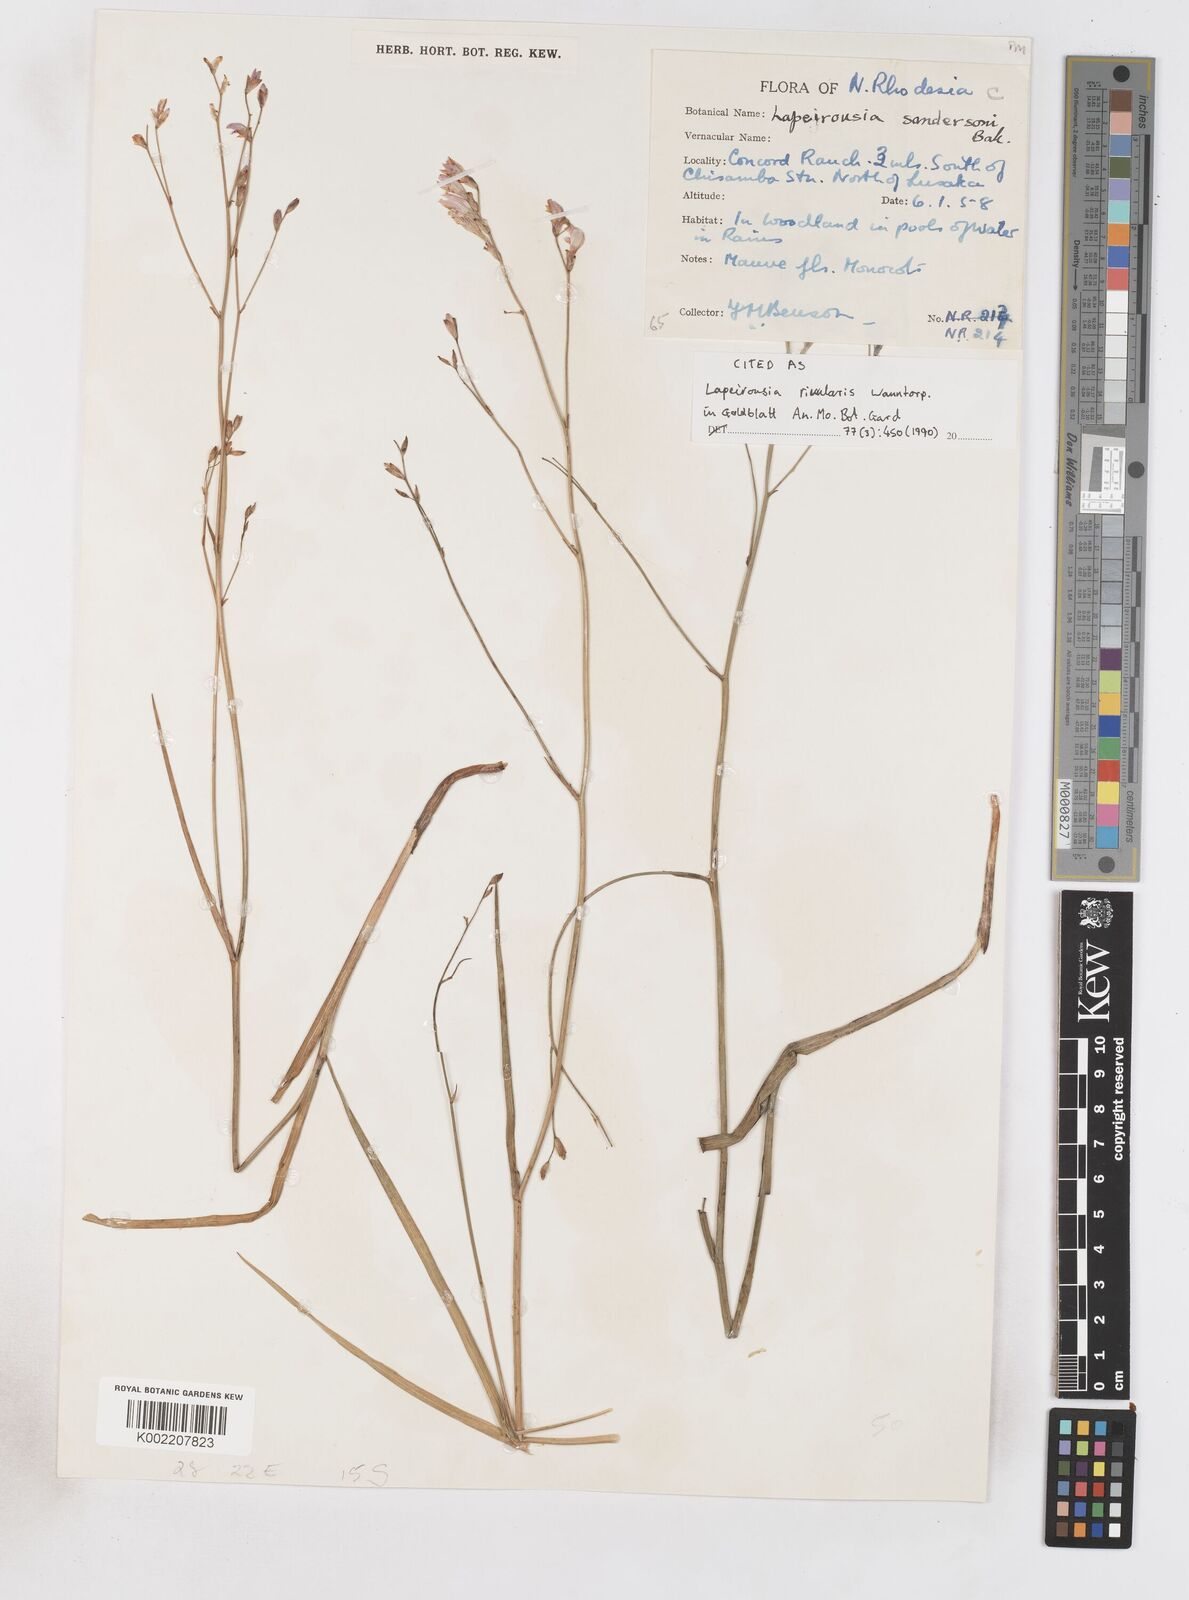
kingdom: Plantae
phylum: Tracheophyta
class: Liliopsida
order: Asparagales
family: Iridaceae
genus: Afrosolen
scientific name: Afrosolen rivularis
